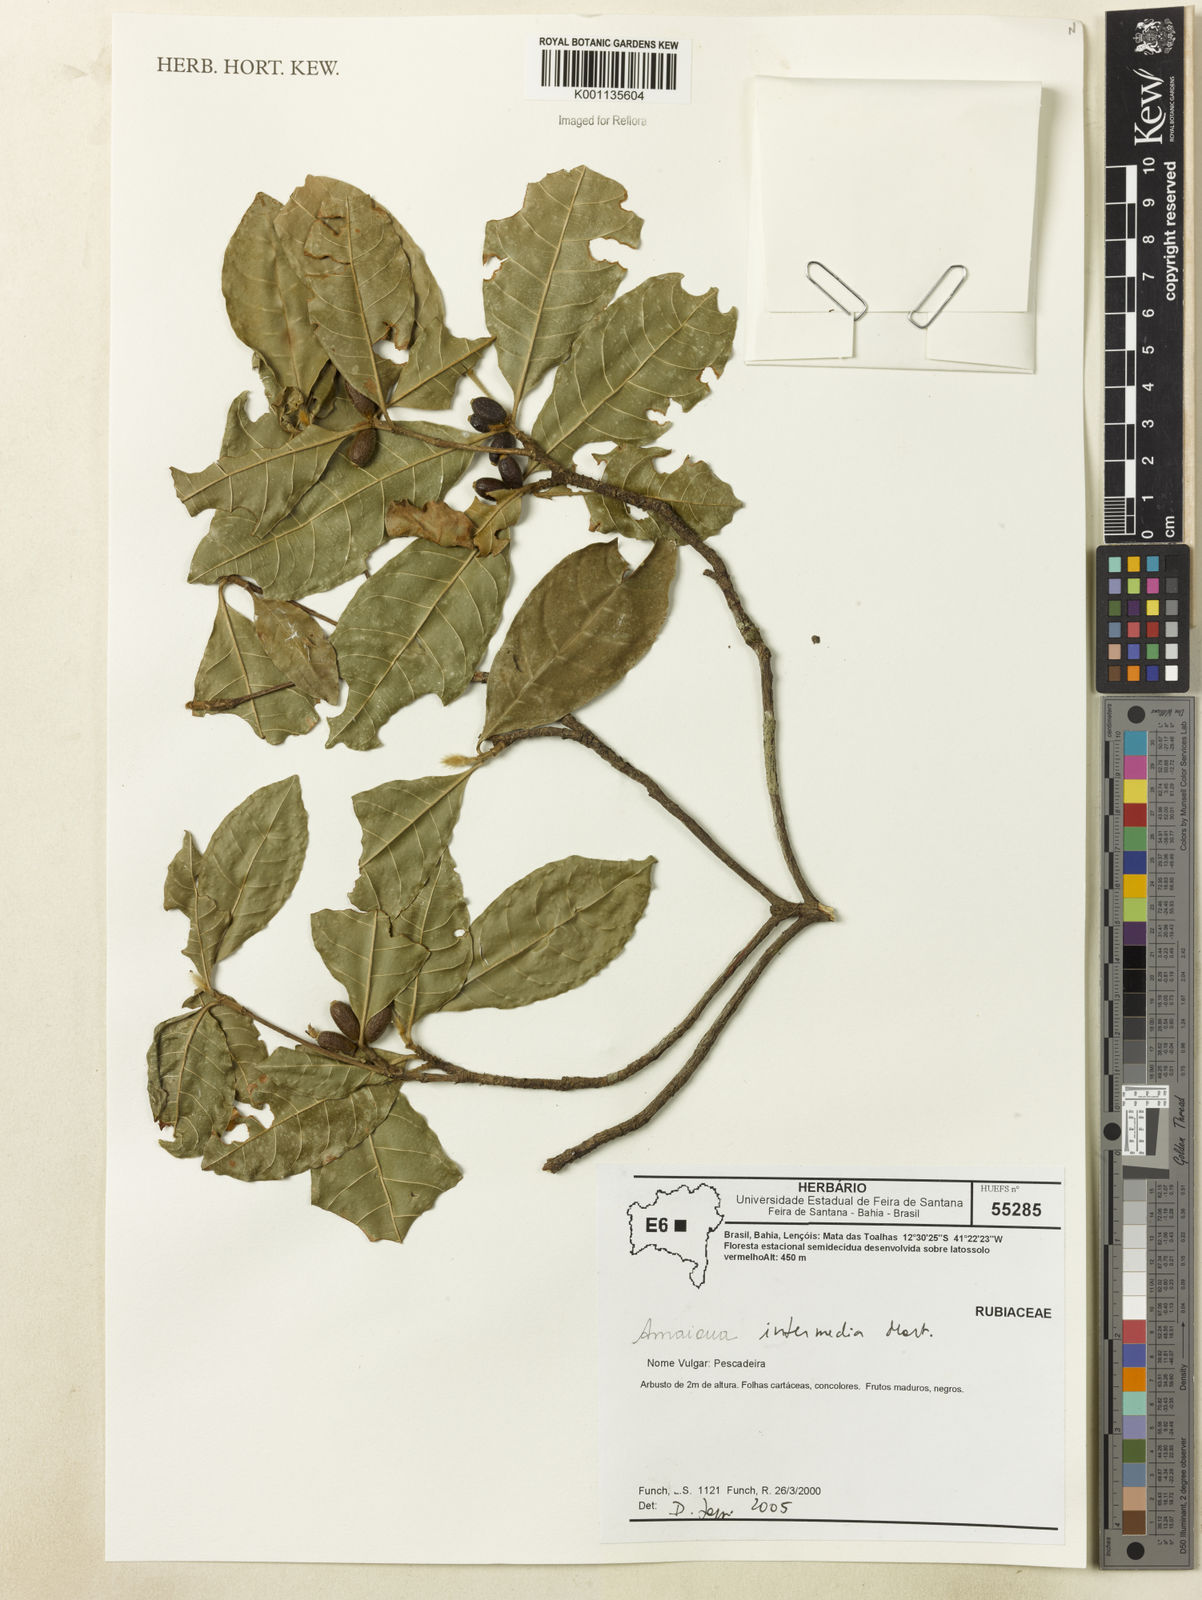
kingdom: Plantae
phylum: Tracheophyta
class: Magnoliopsida
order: Gentianales
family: Rubiaceae
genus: Amaioua
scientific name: Amaioua intermedia
